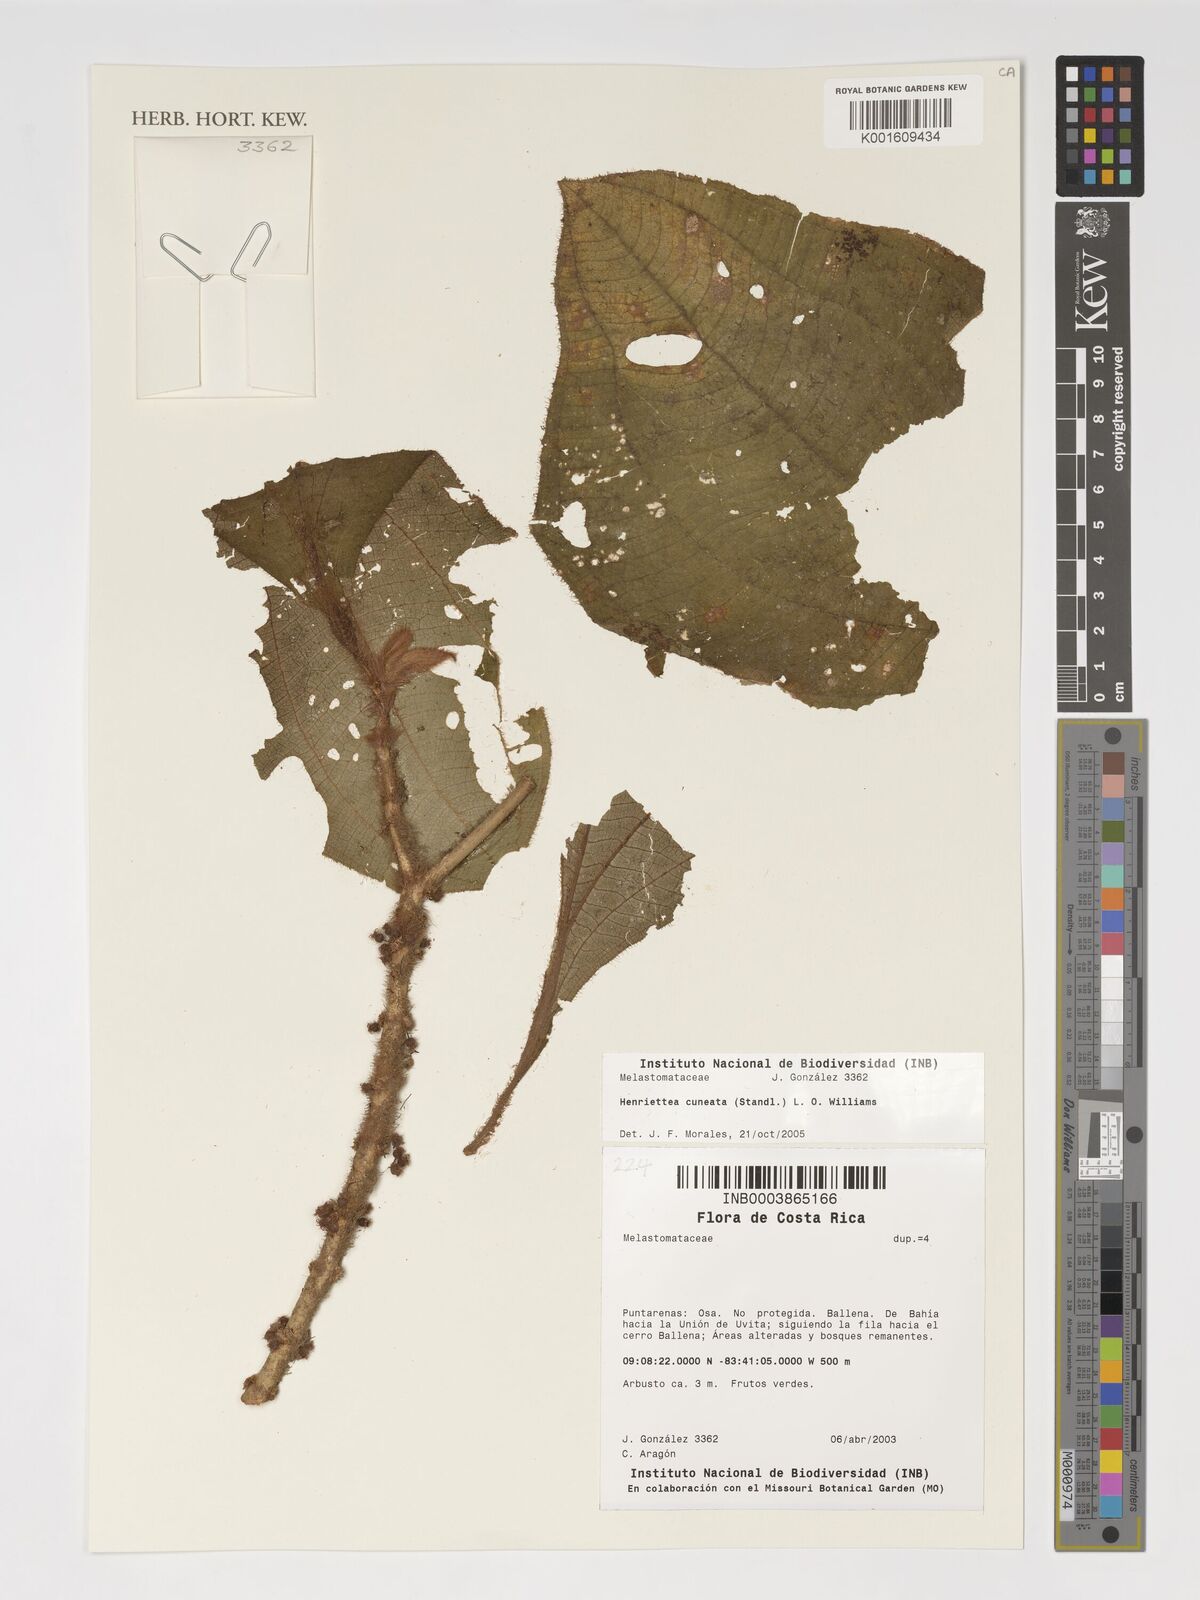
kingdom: Plantae
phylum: Tracheophyta
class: Magnoliopsida
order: Myrtales
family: Melastomataceae
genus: Henriettea
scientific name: Henriettea cuneata
